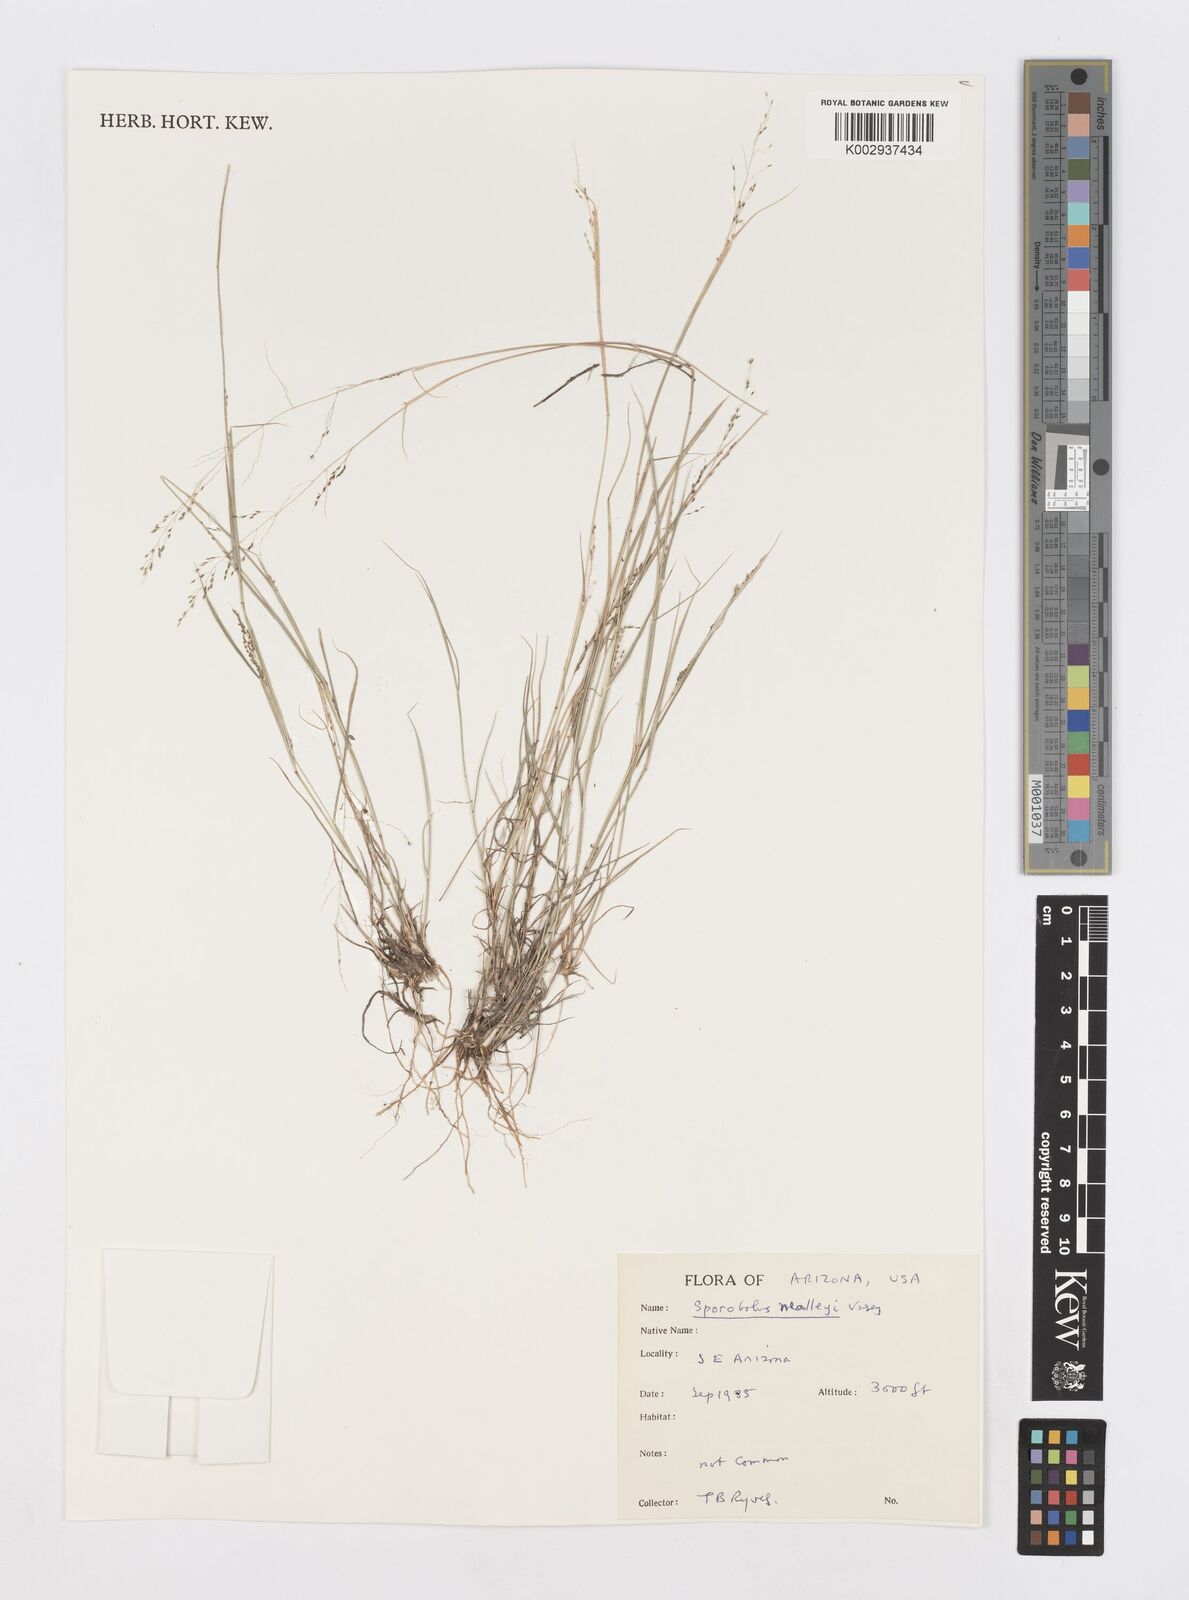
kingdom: Plantae
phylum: Tracheophyta
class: Liliopsida
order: Poales
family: Poaceae
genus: Sporobolus
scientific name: Sporobolus nealleyi
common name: Gyp grass
